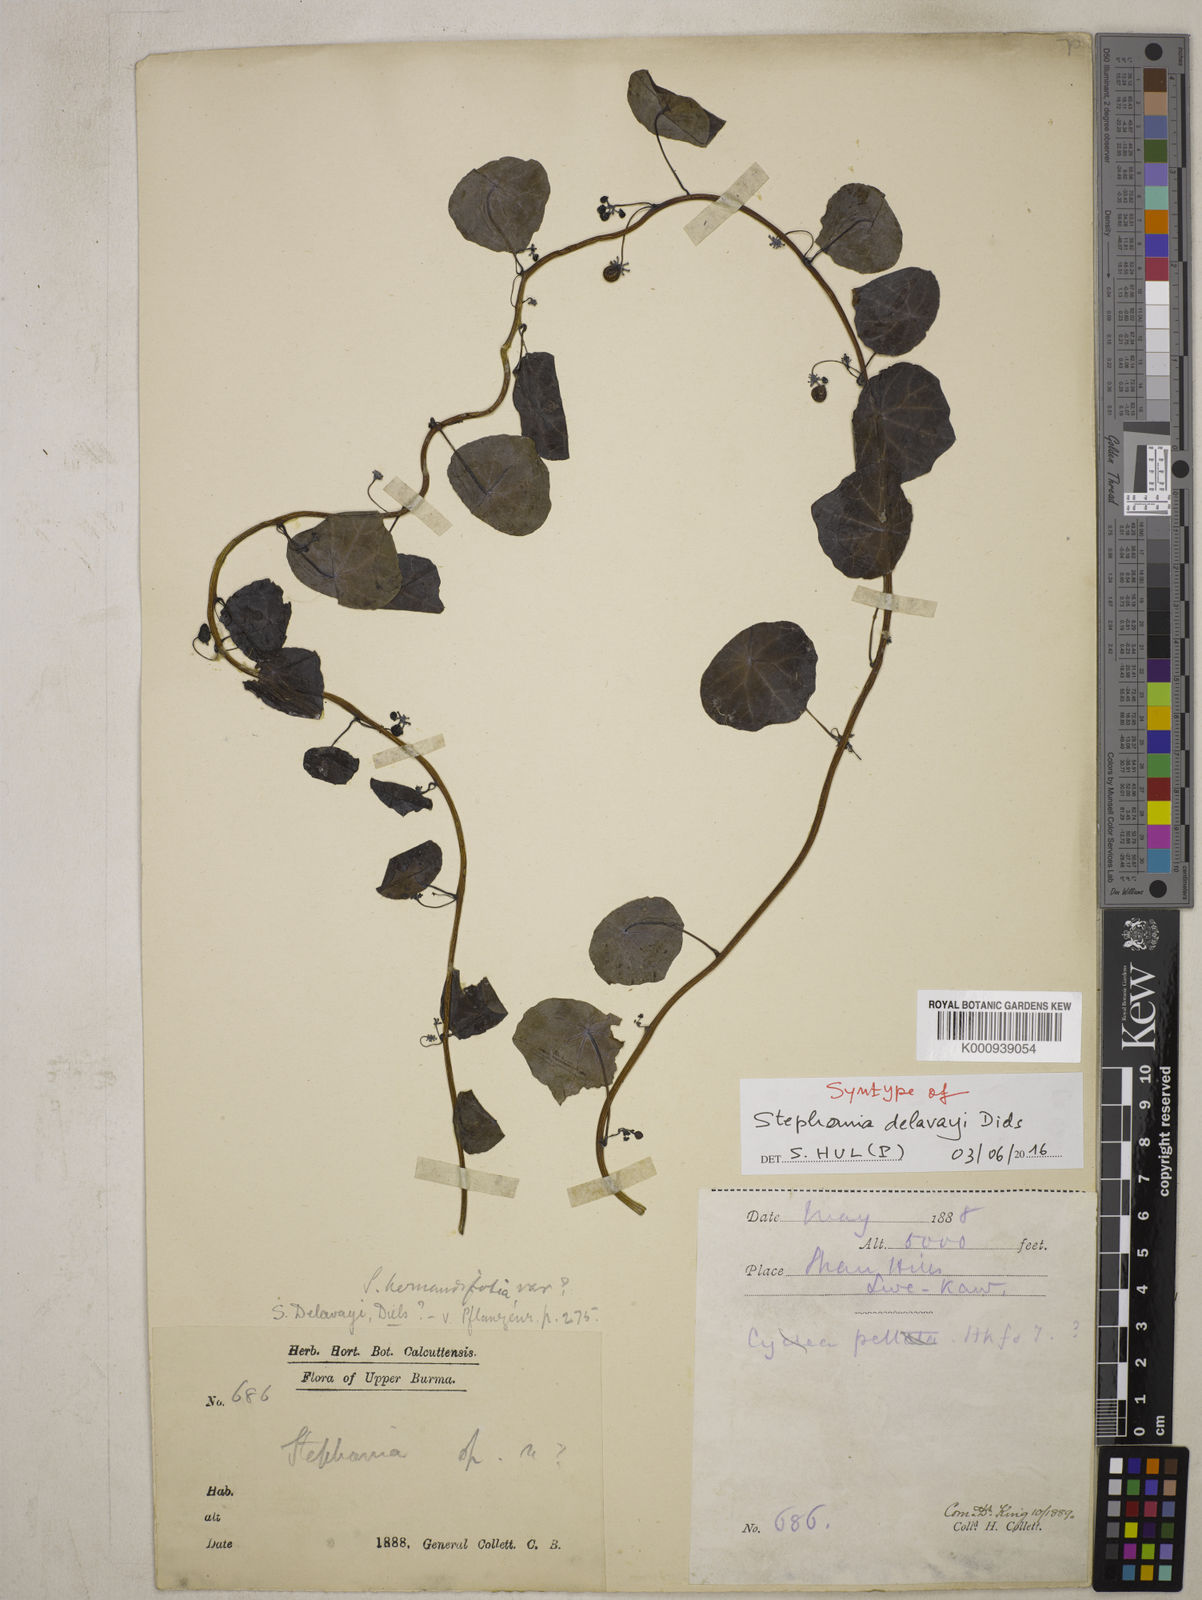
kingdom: Plantae
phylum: Tracheophyta
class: Magnoliopsida
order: Ranunculales
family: Menispermaceae
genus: Stephania
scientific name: Stephania delavayi
